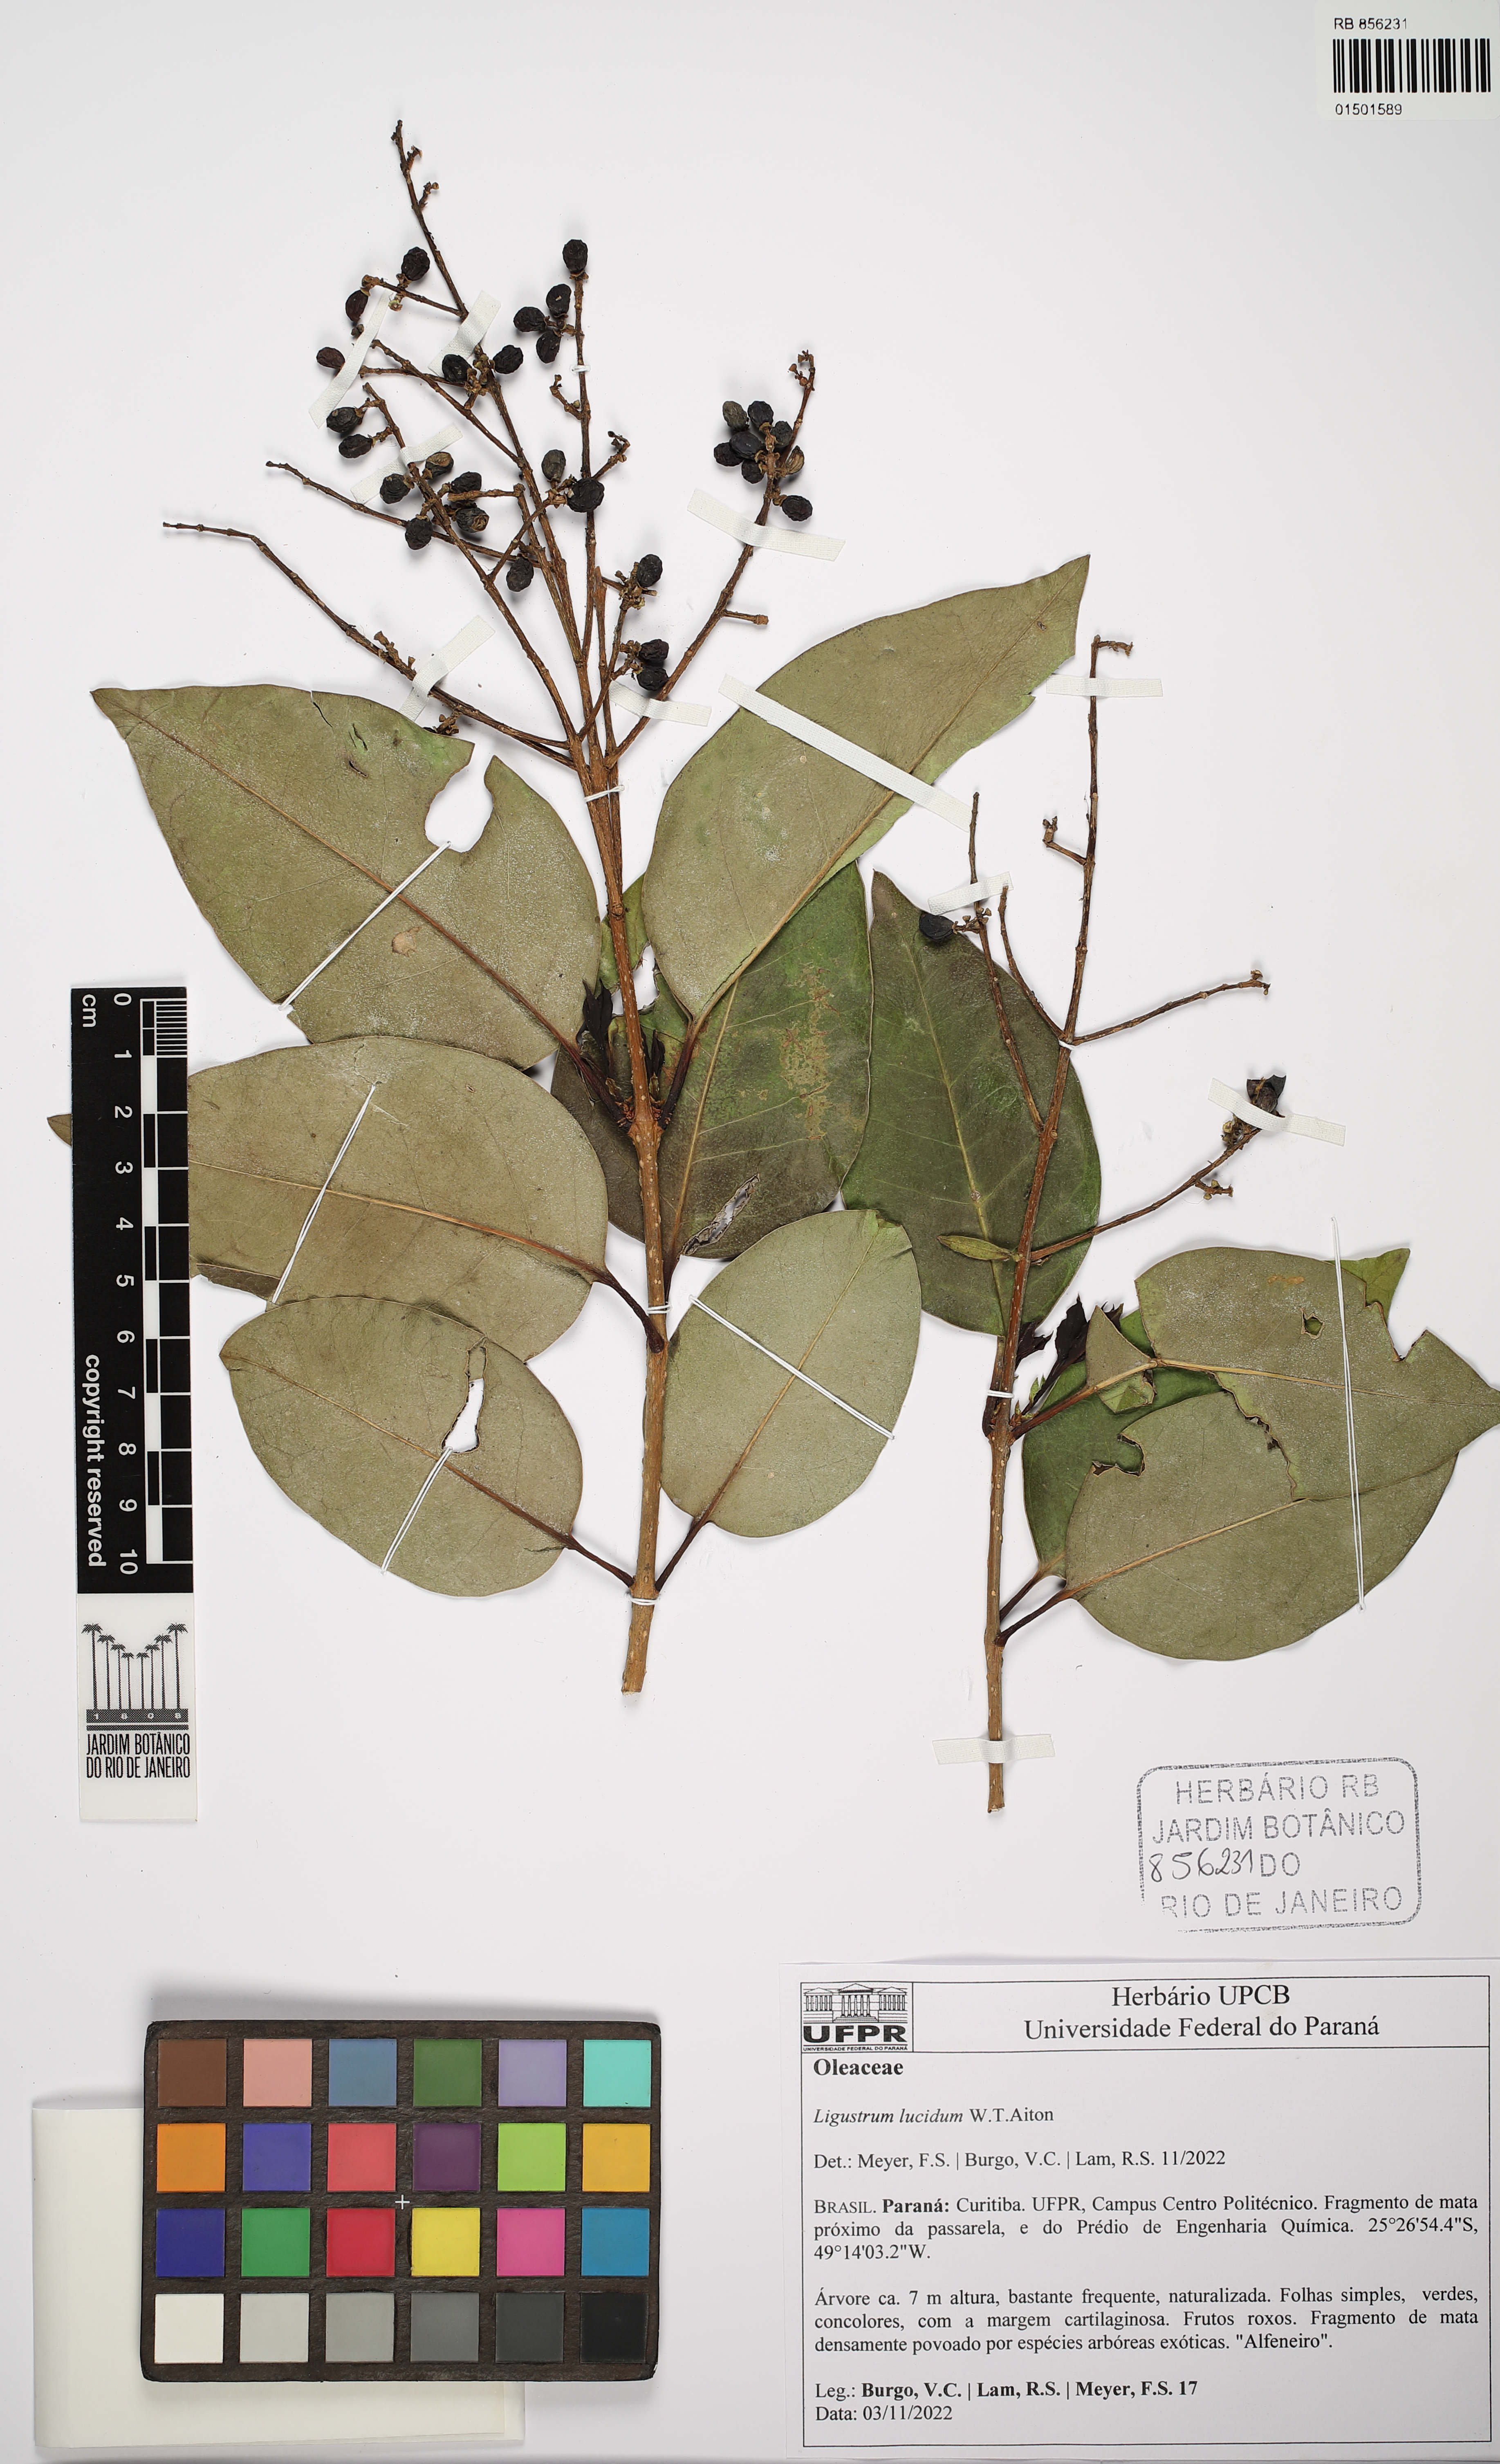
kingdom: Plantae
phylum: Tracheophyta
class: Magnoliopsida
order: Lamiales
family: Oleaceae
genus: Ligustrum
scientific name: Ligustrum lucidum
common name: Glossy privet
